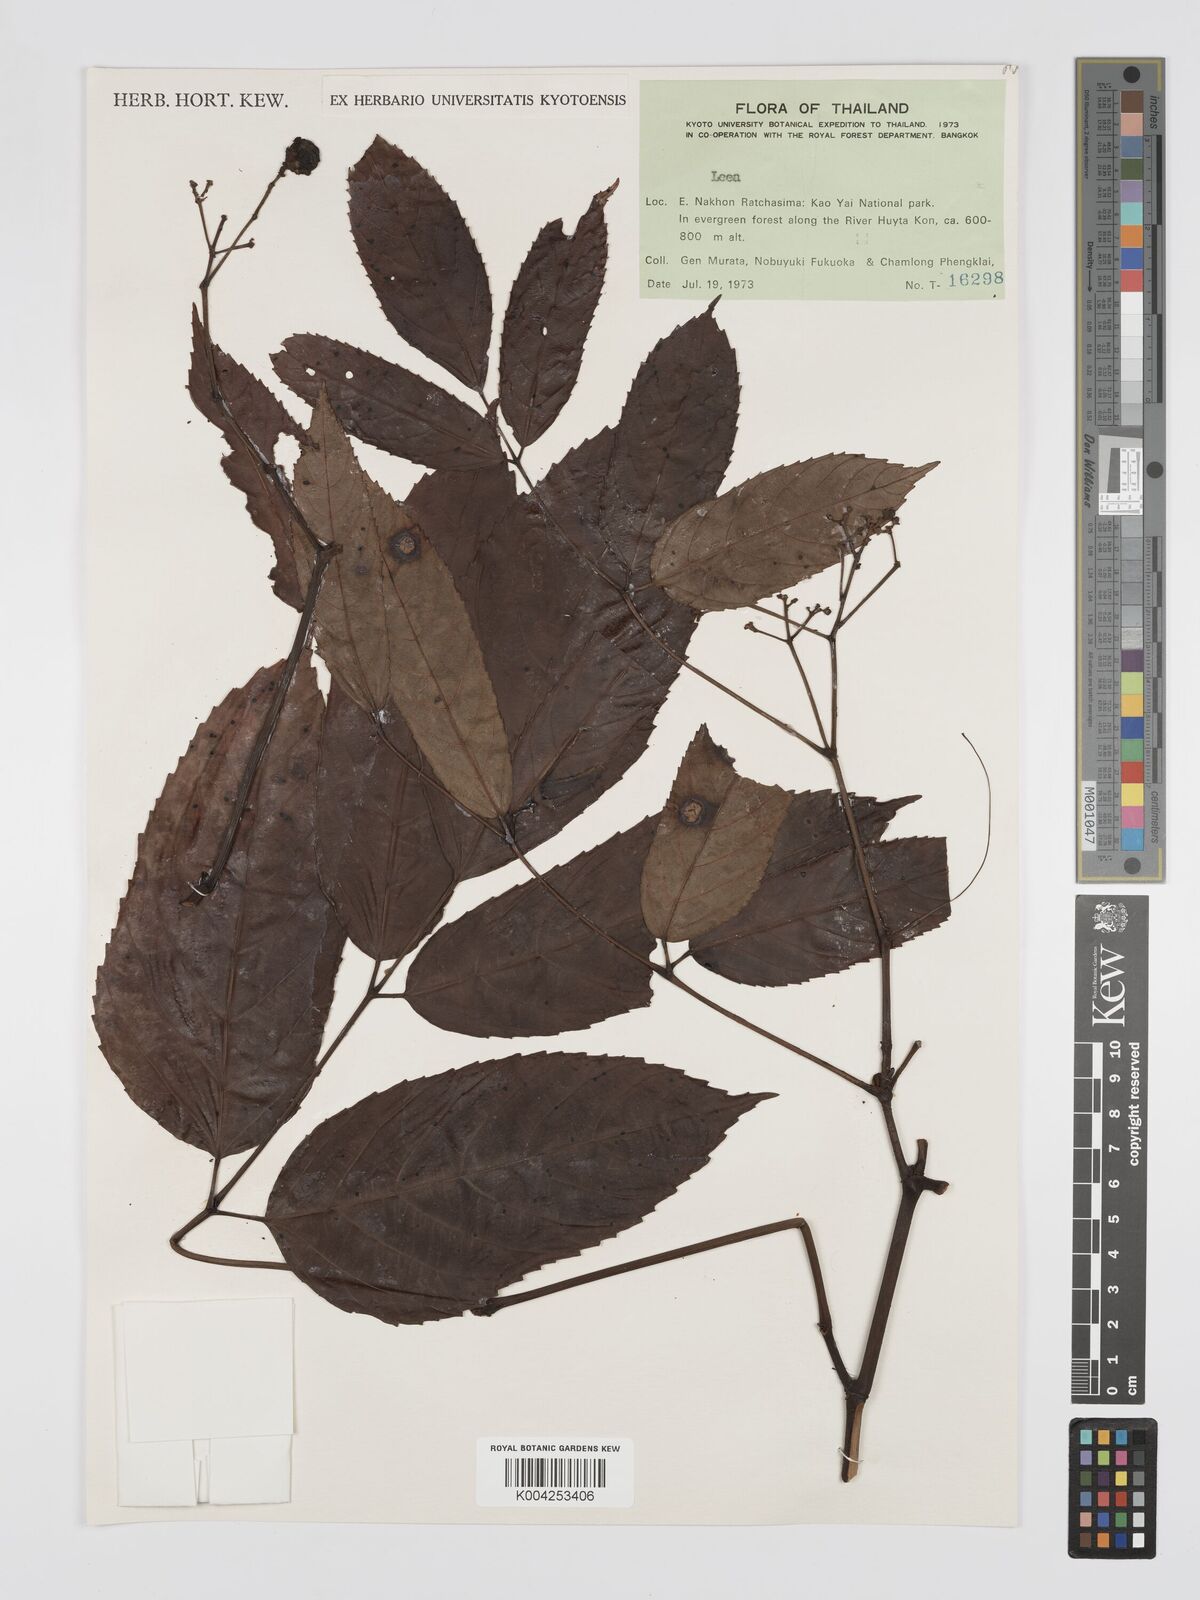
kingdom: Plantae
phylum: Tracheophyta
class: Magnoliopsida
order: Vitales
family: Vitaceae
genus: Leea
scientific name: Leea
